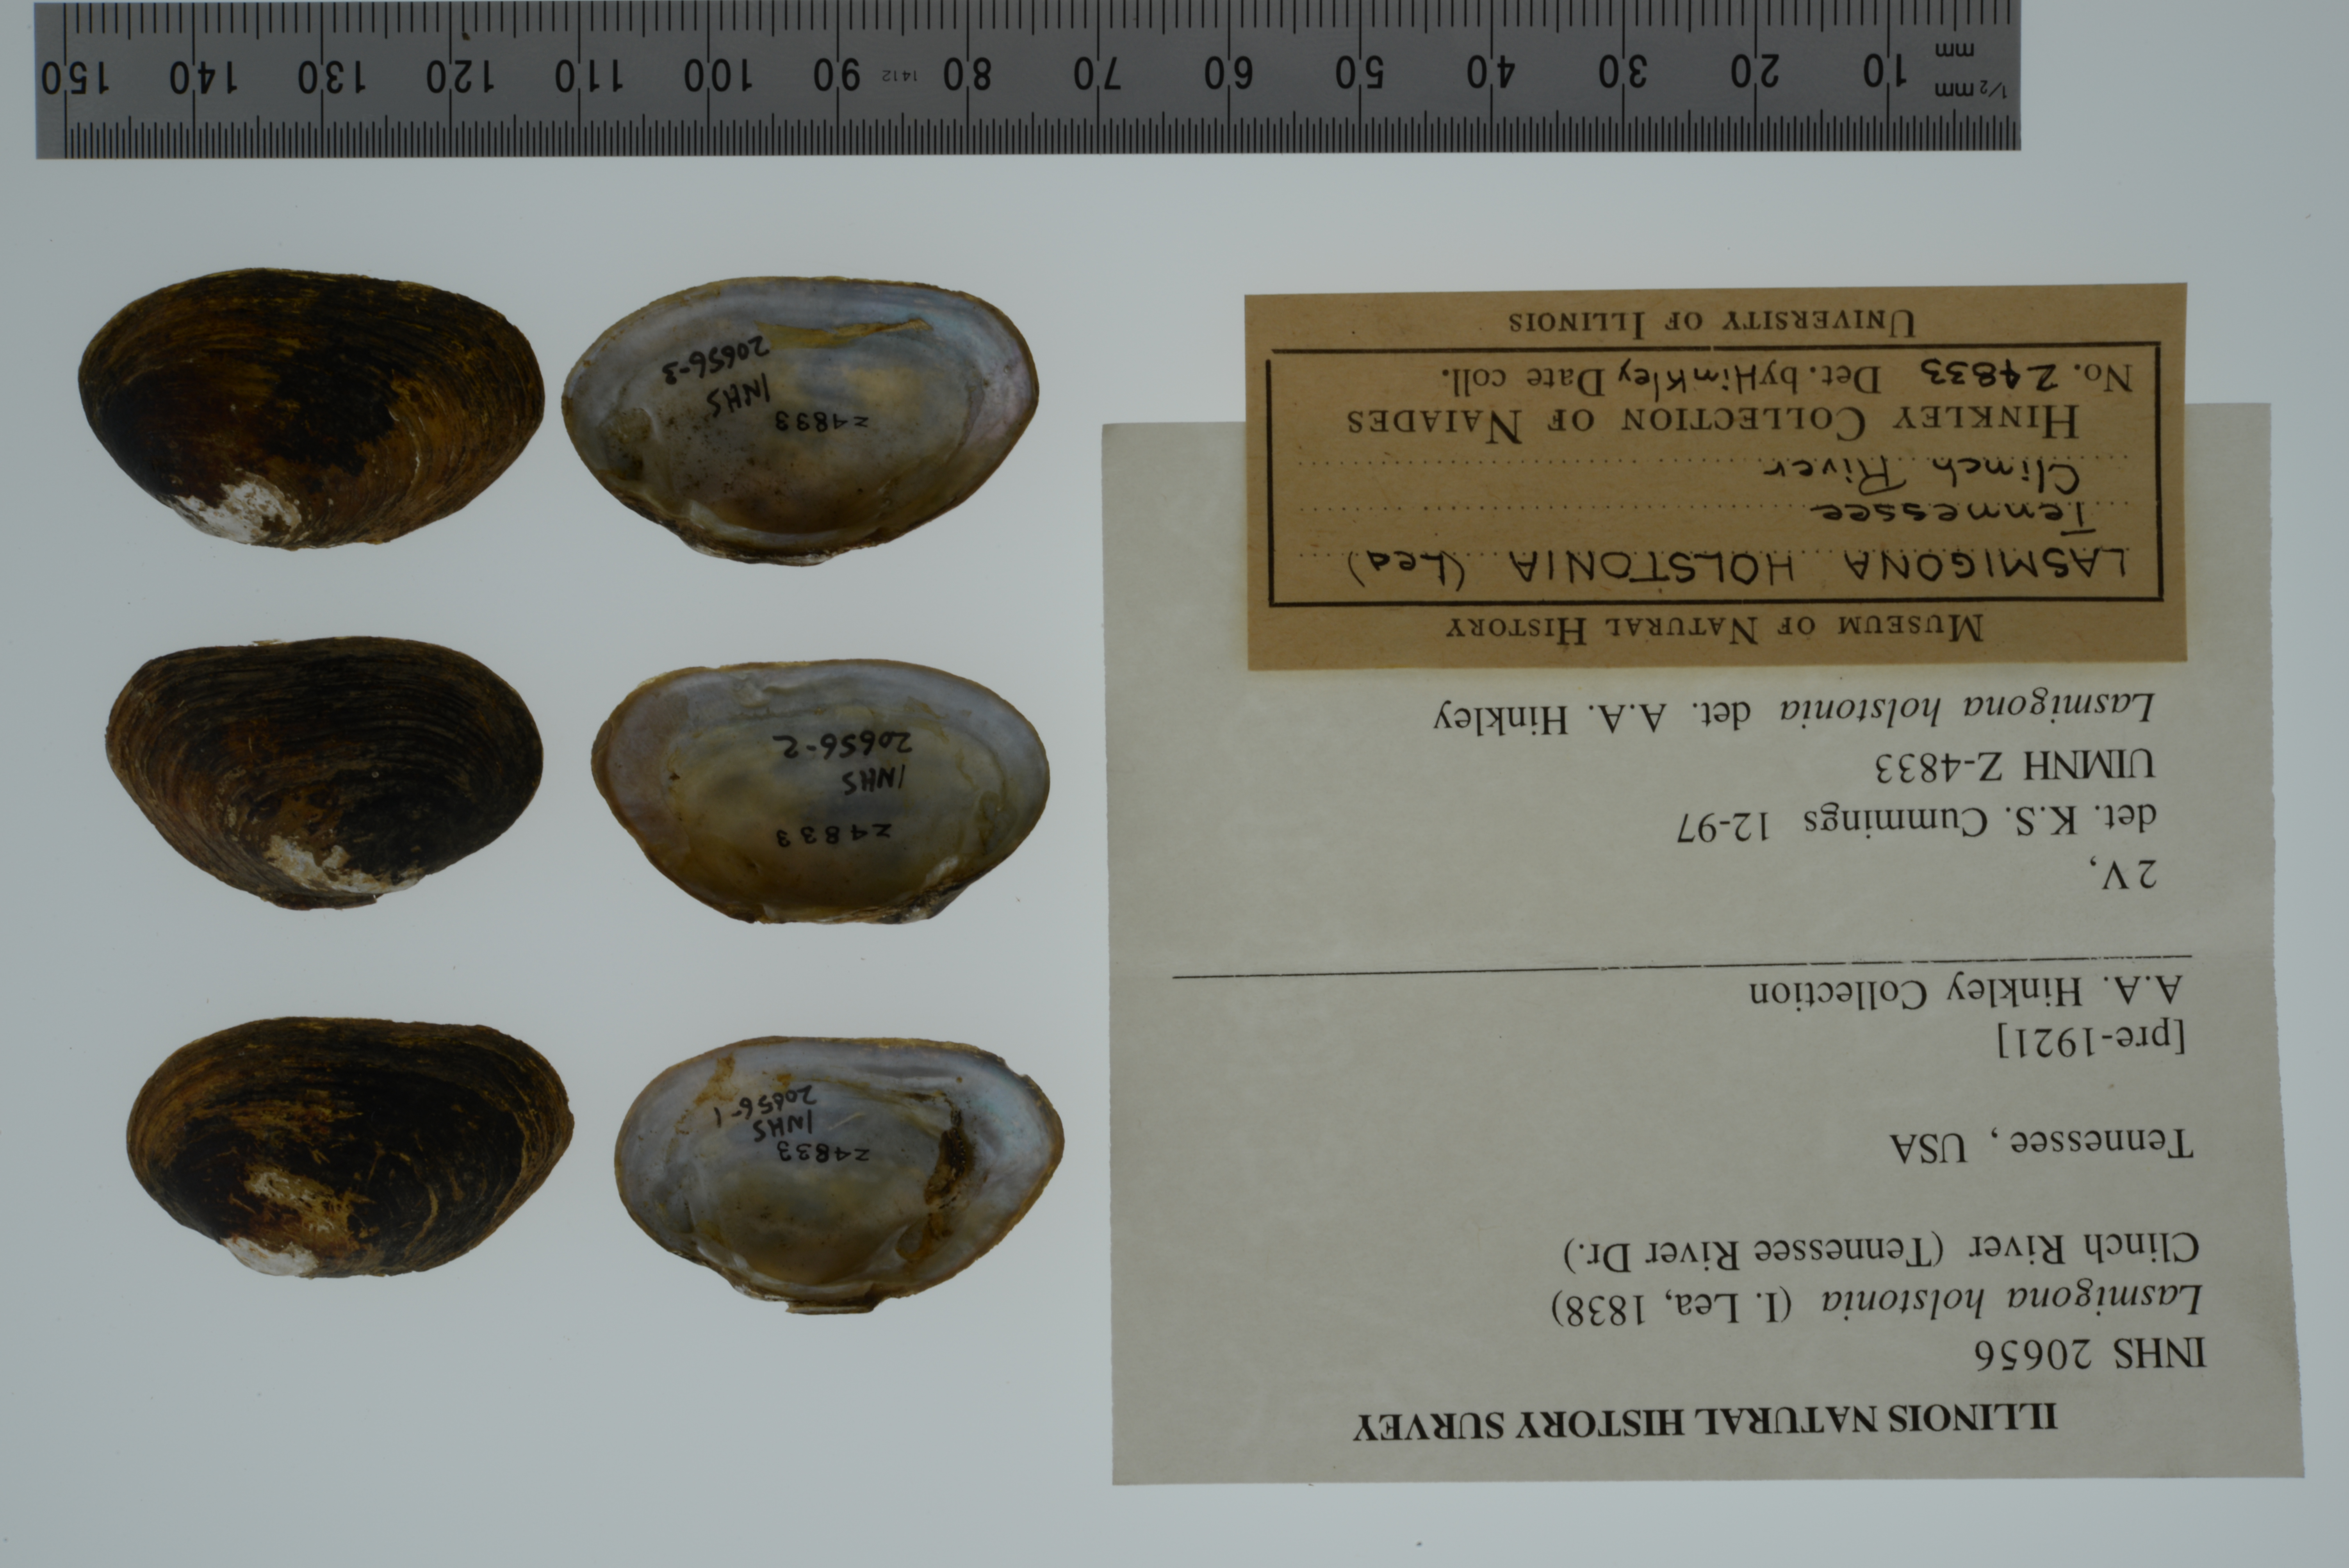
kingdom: Animalia
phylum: Mollusca
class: Bivalvia
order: Unionida
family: Unionidae
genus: Lasmigona
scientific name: Lasmigona holstonia
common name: Tennessee heelsplitter
